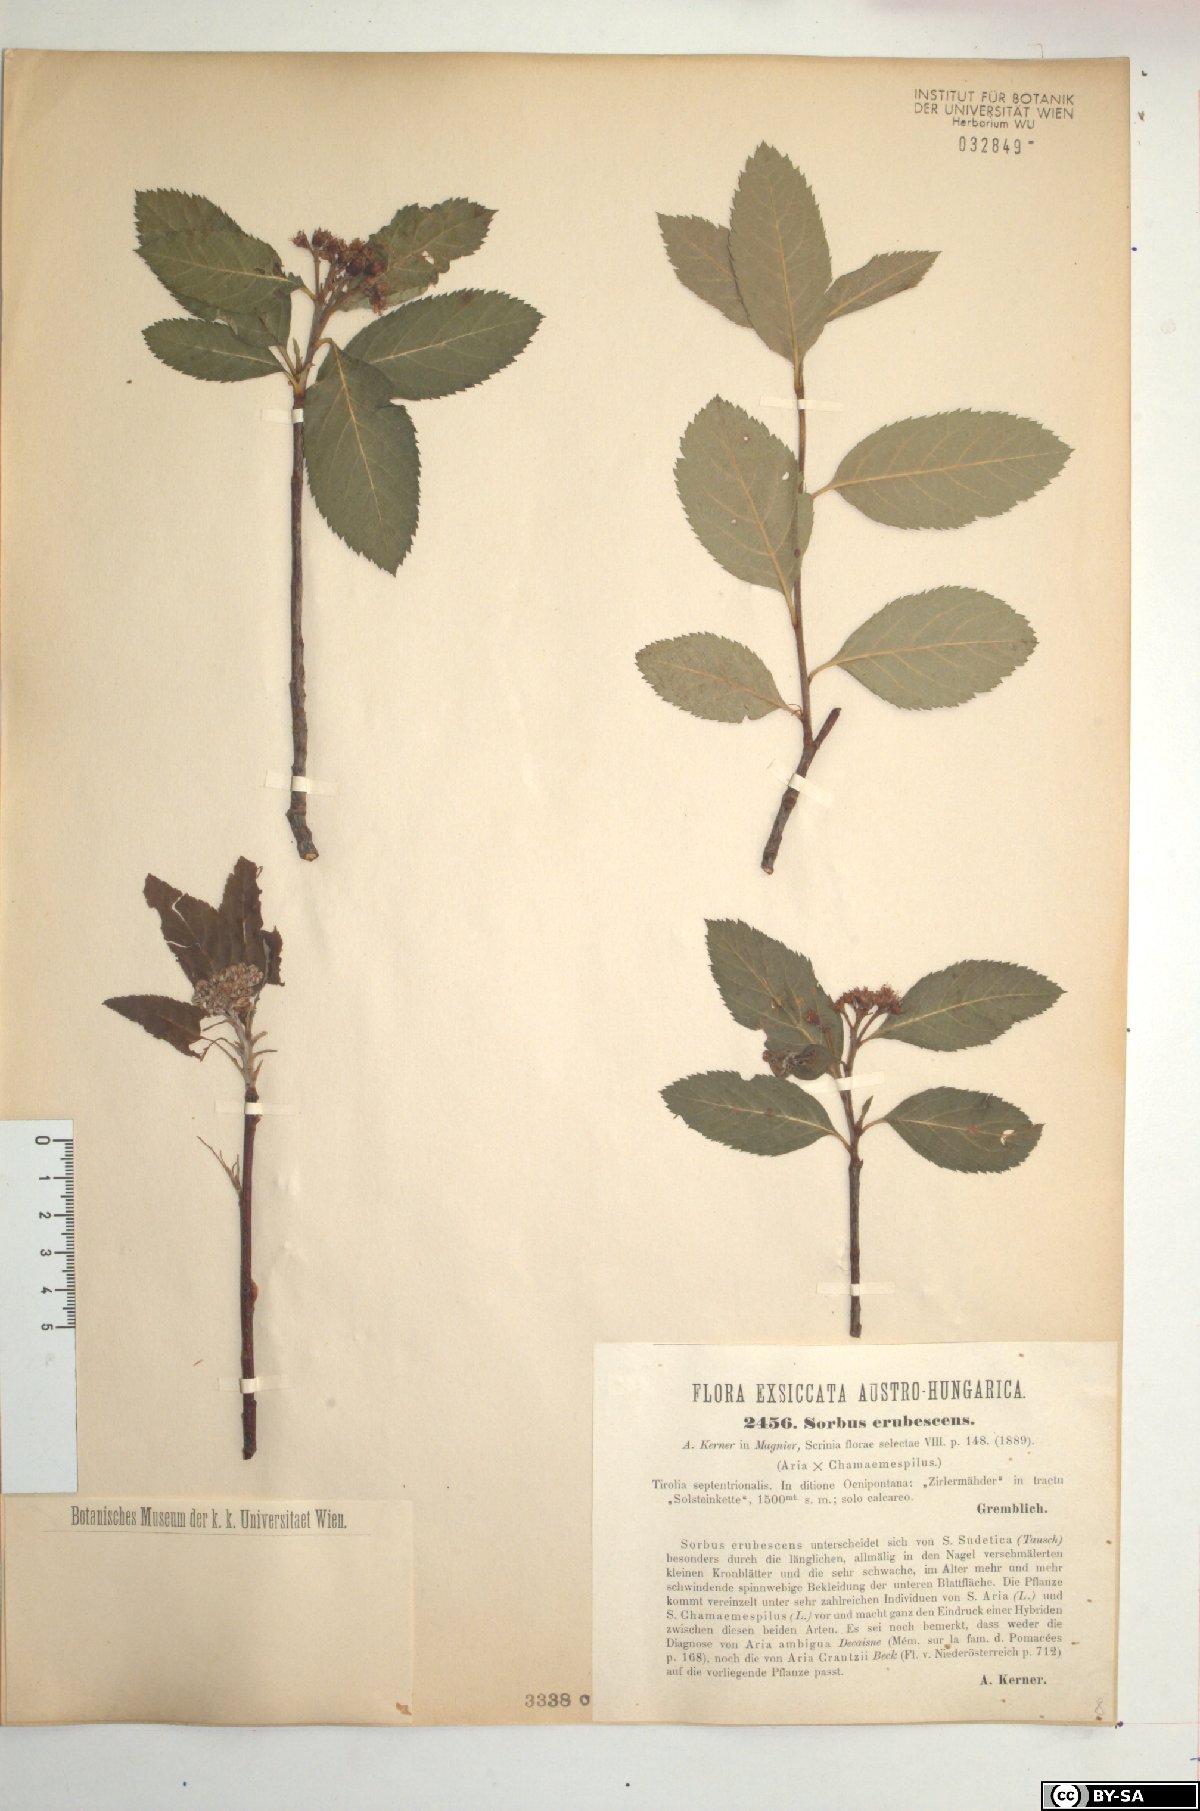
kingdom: Plantae
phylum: Tracheophyta
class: Magnoliopsida
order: Rosales
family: Rosaceae
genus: Majovskya
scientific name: Majovskya sudetica
